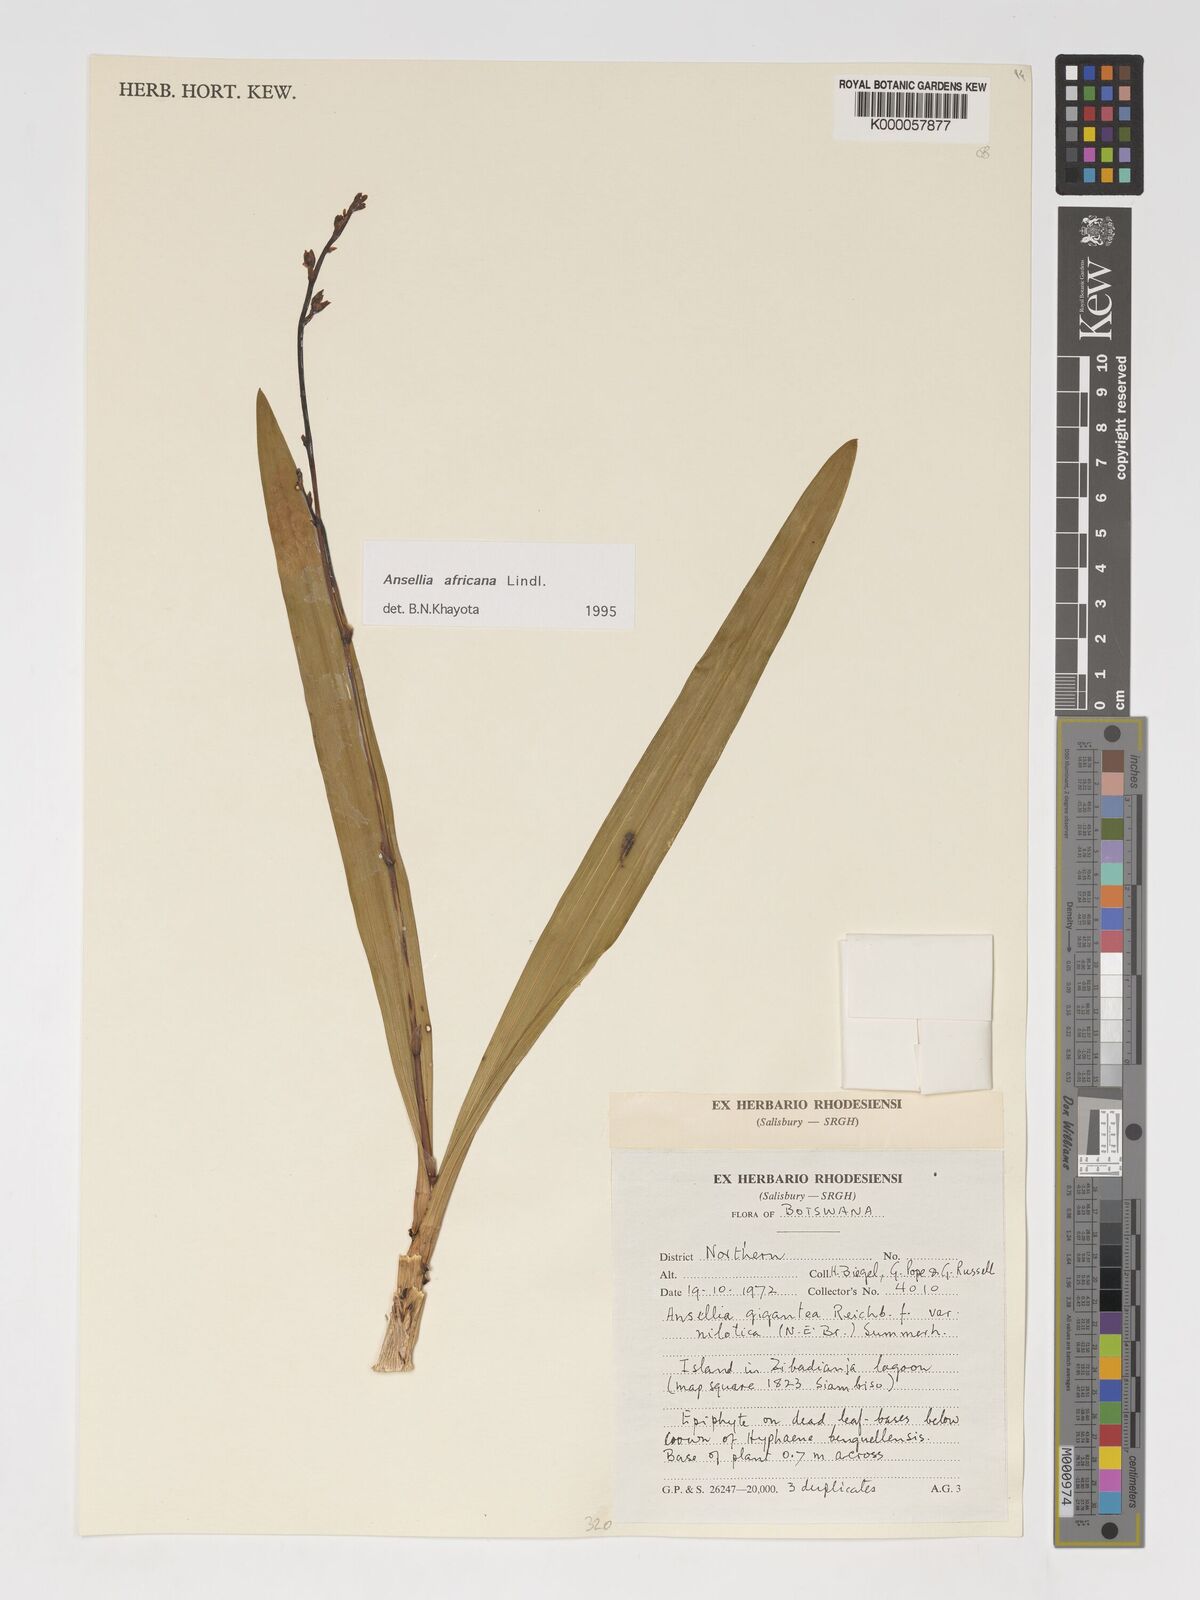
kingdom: Plantae
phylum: Tracheophyta
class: Liliopsida
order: Asparagales
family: Orchidaceae
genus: Ansellia
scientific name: Ansellia africana
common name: African ansellia
